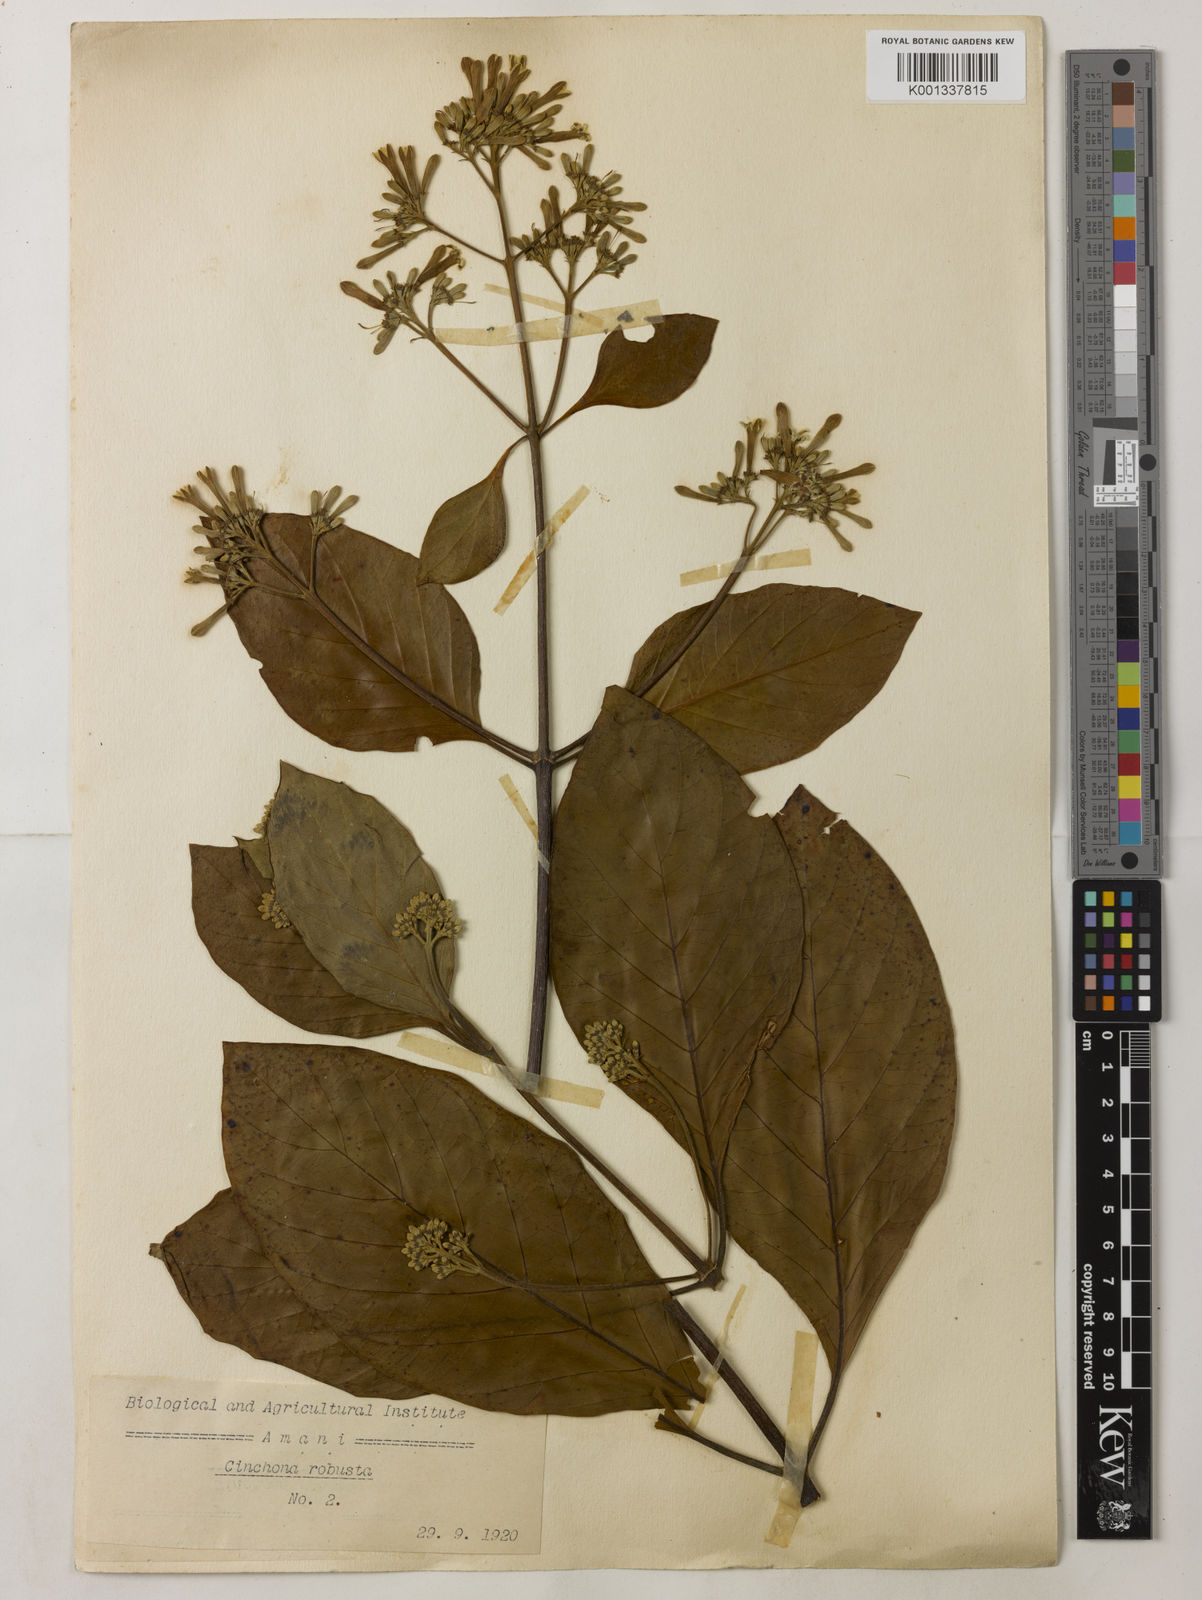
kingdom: Plantae
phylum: Tracheophyta
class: Magnoliopsida
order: Gentianales
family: Rubiaceae
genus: Cinchona
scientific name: Cinchona officinalis
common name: Lojabark
